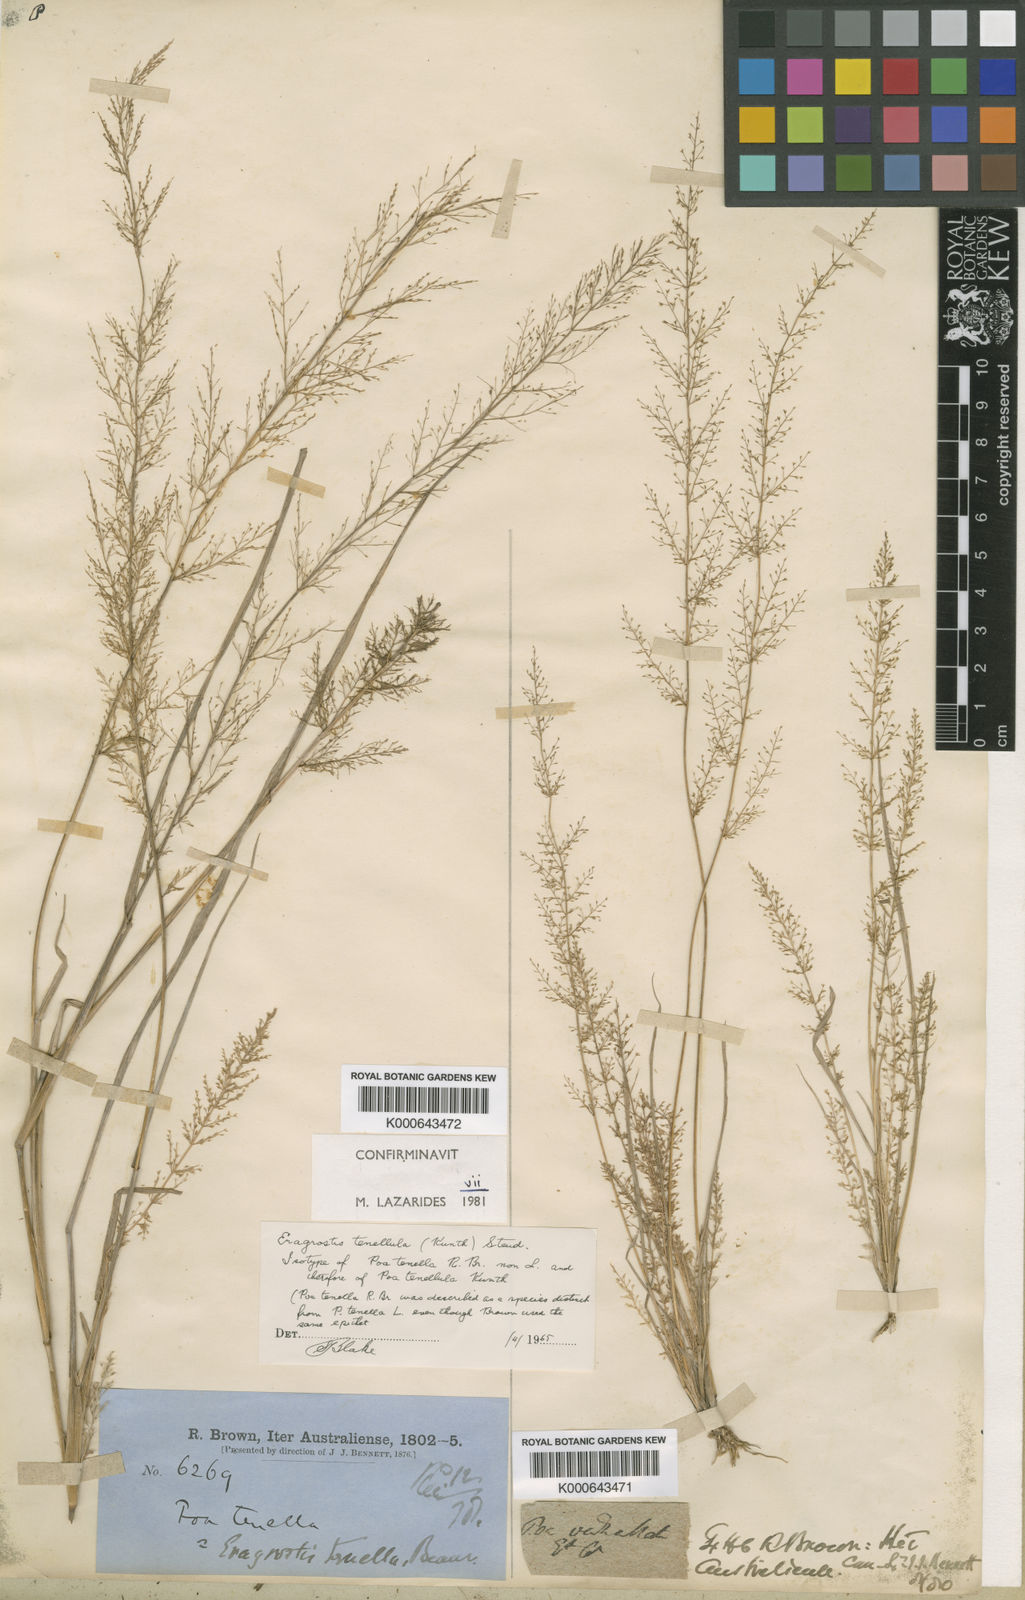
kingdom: Plantae
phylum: Tracheophyta
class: Liliopsida
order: Poales
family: Poaceae
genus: Eragrostis
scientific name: Eragrostis tenellula
